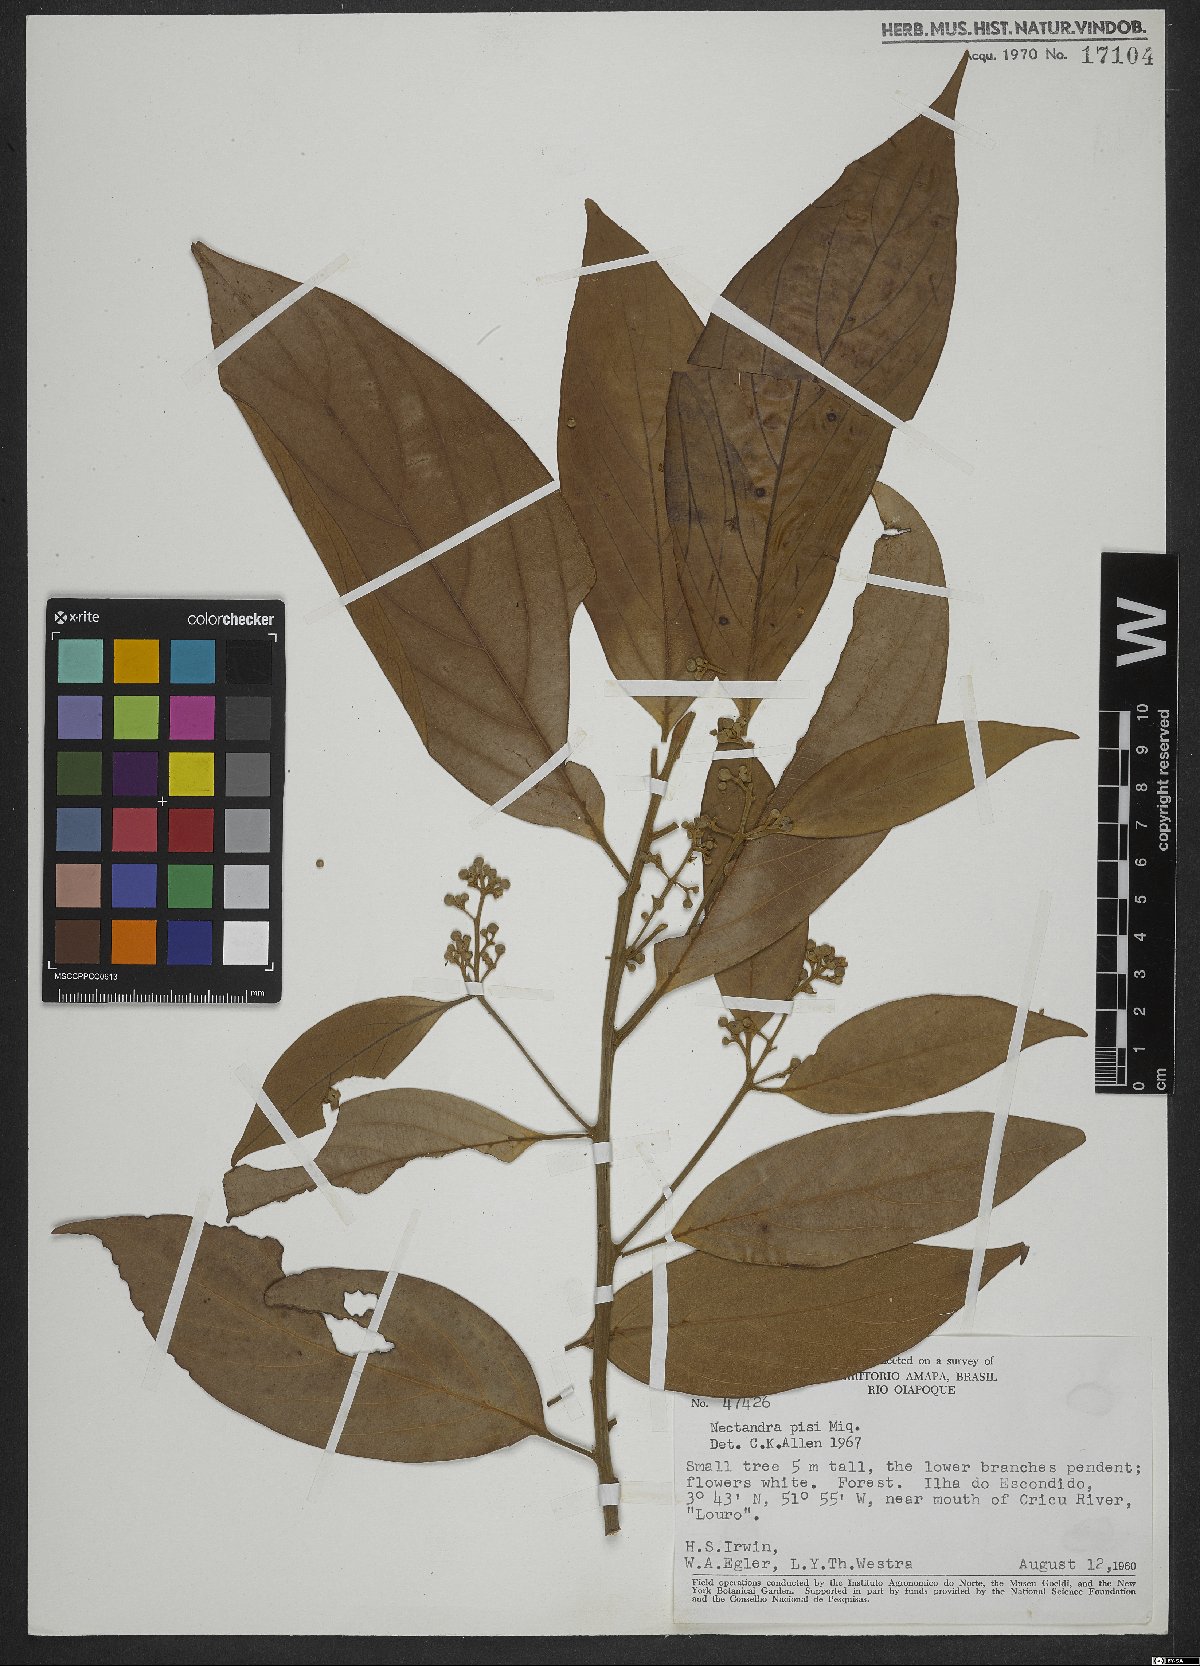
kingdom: Plantae
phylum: Tracheophyta
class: Magnoliopsida
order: Laurales
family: Lauraceae
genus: Nectandra
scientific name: Nectandra globosa
